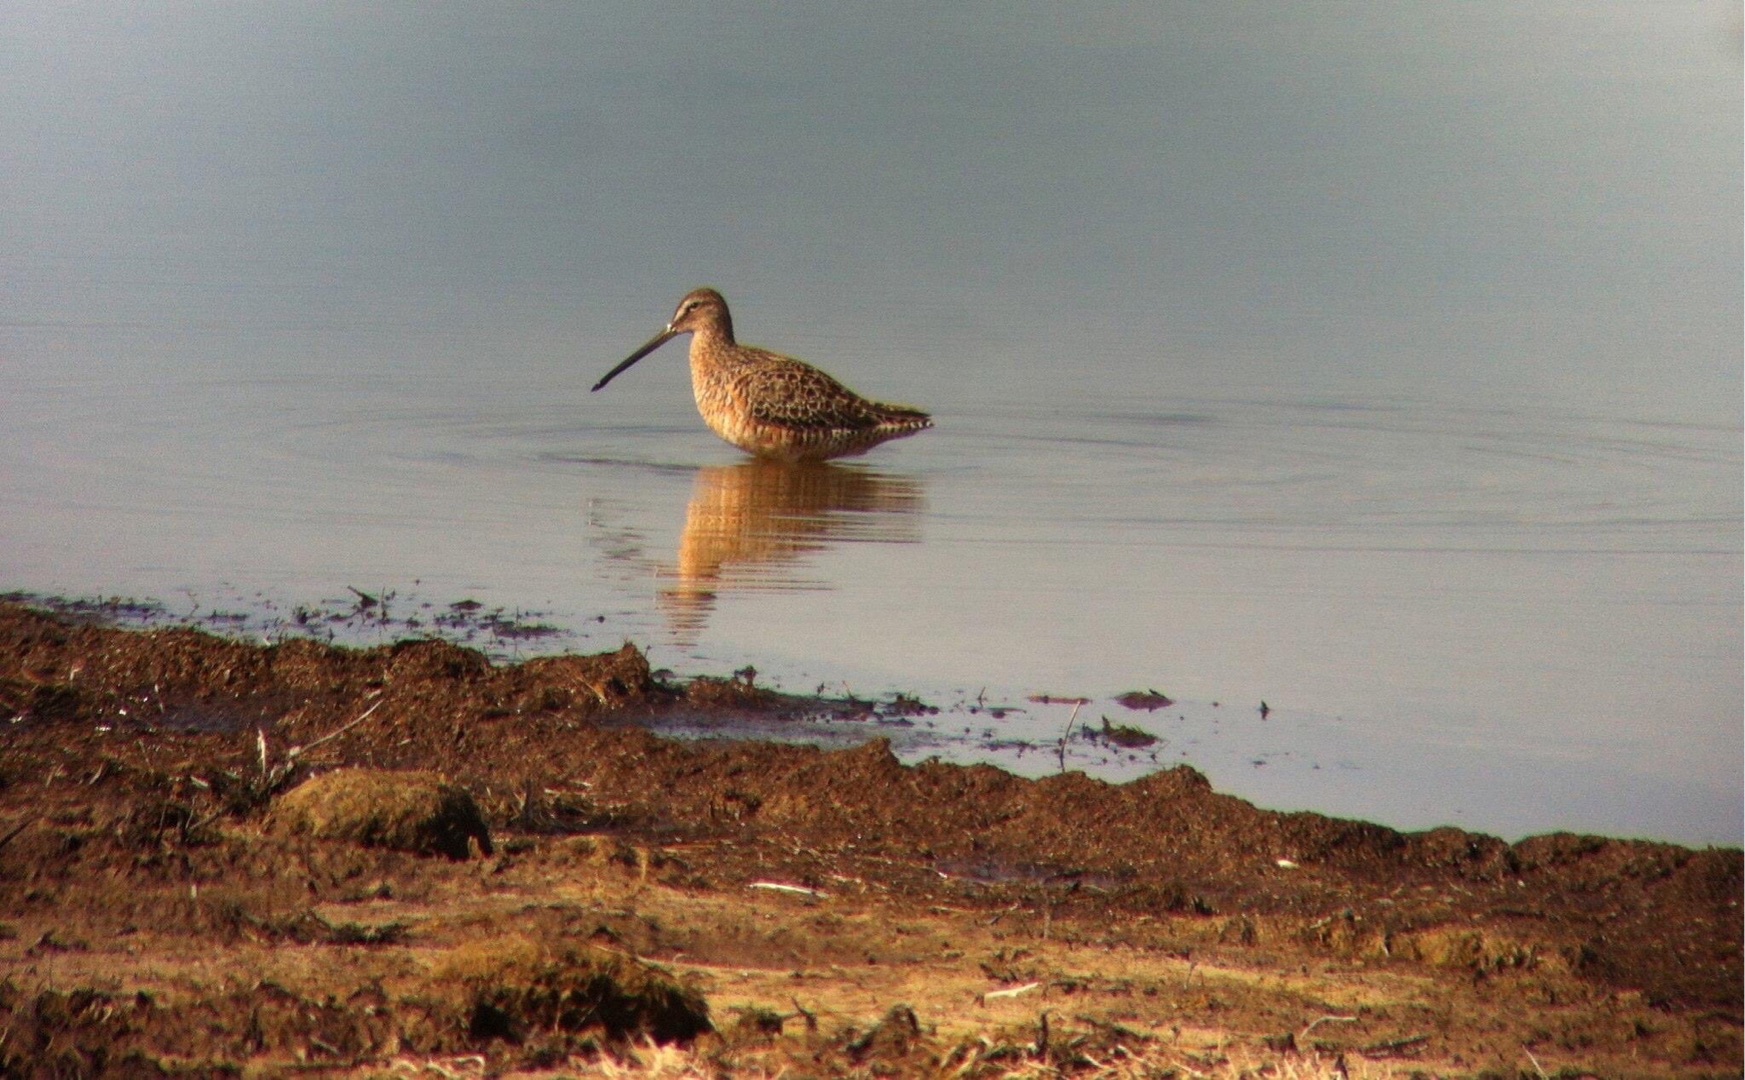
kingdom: Animalia
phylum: Chordata
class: Aves
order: Charadriiformes
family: Scolopacidae
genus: Limnodromus
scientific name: Limnodromus scolopaceus
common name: Langnæbbet sneppeklire
